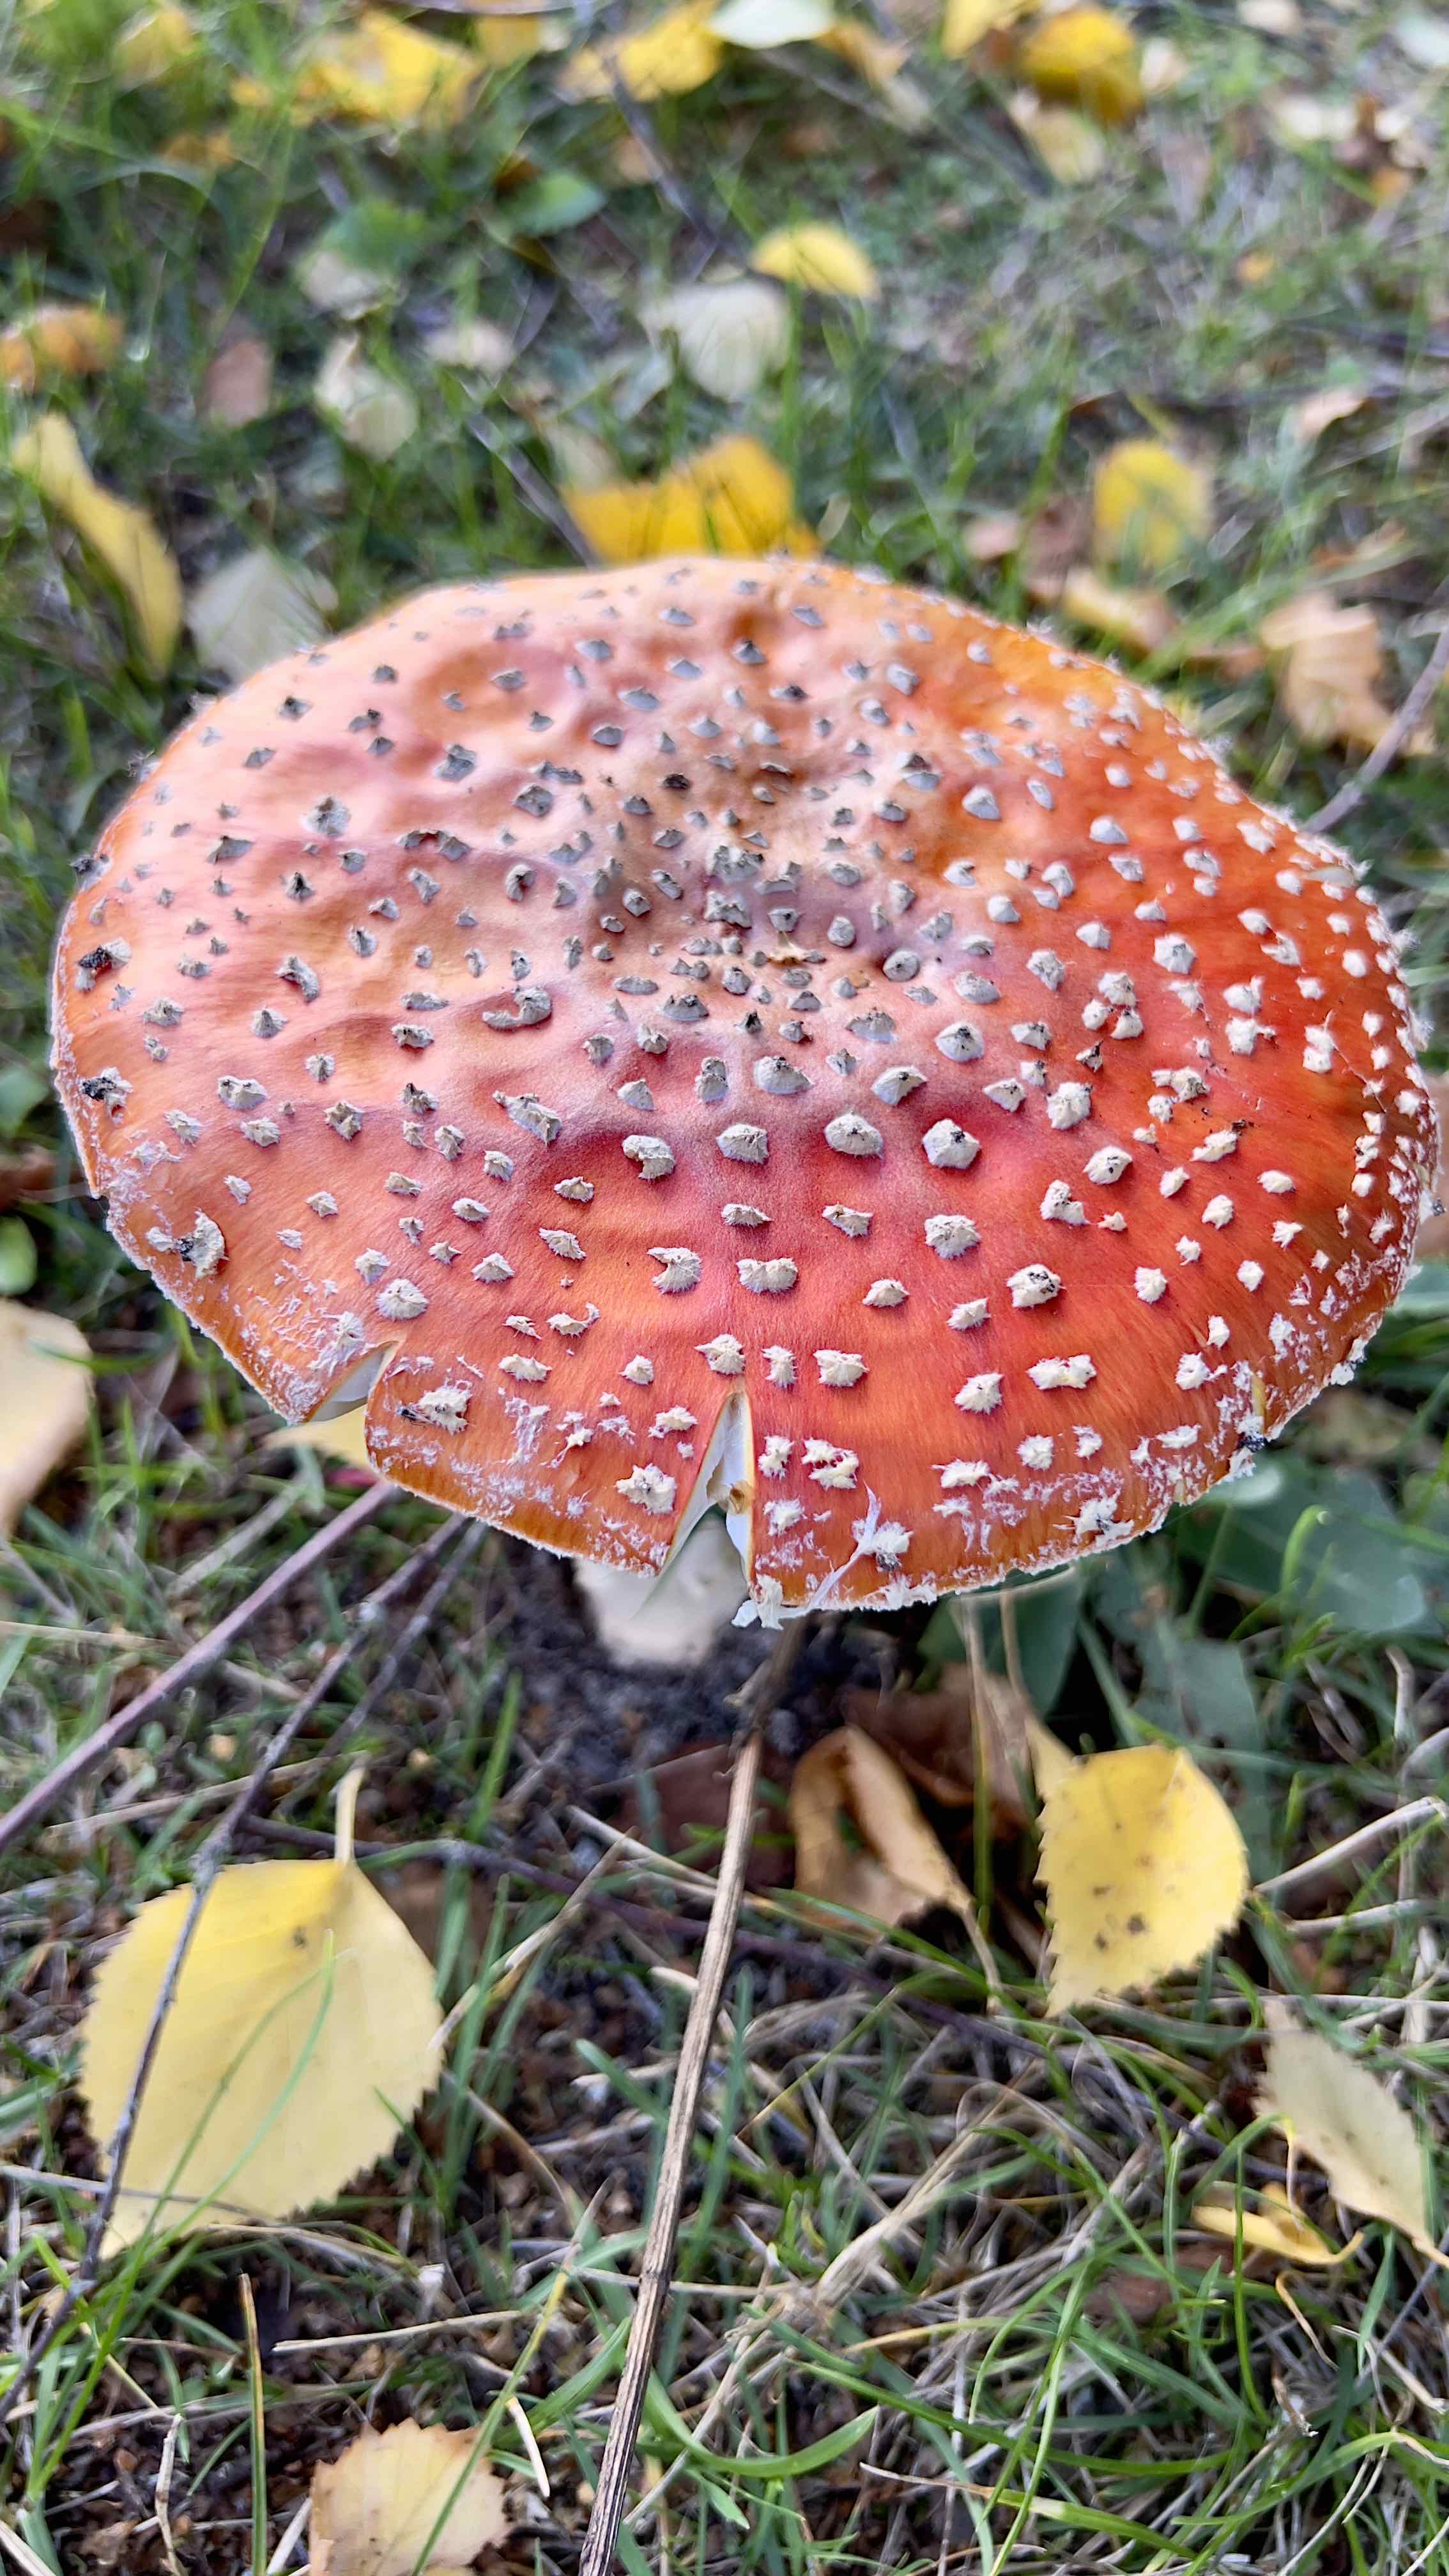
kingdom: Fungi
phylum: Basidiomycota
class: Agaricomycetes
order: Agaricales
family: Amanitaceae
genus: Amanita
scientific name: Amanita muscaria
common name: rød fluesvamp
